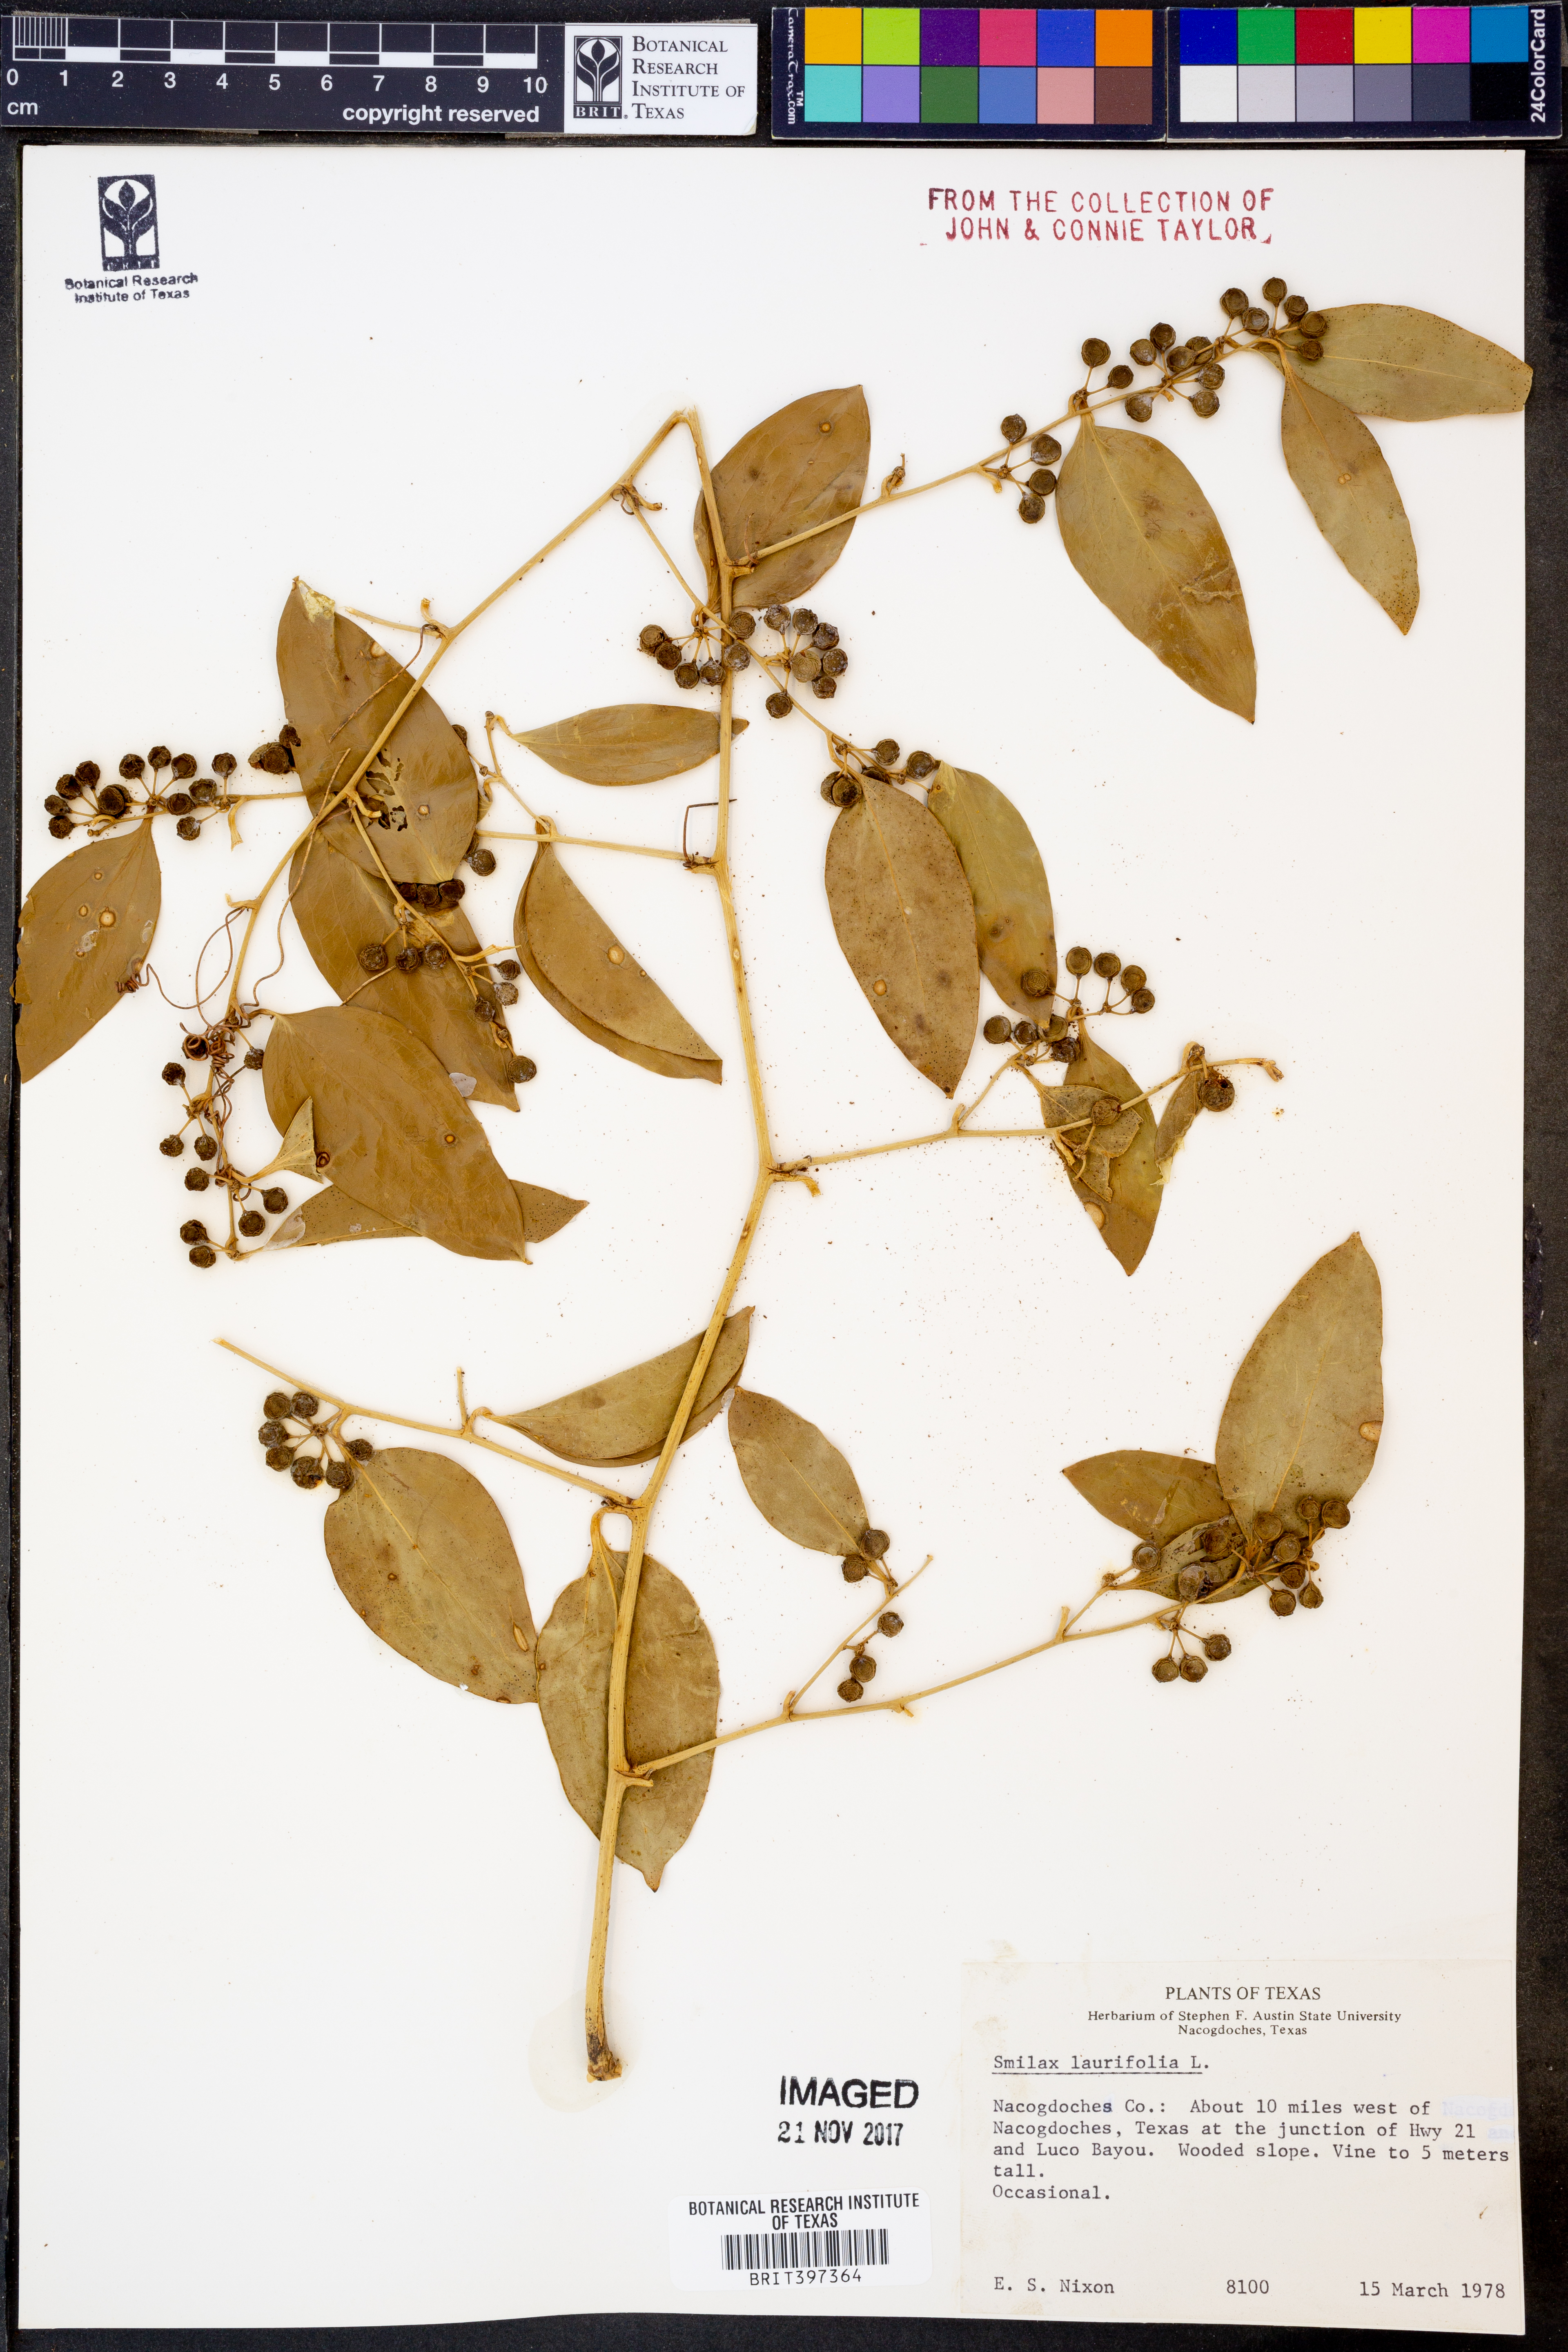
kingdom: Plantae
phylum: Tracheophyta
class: Liliopsida
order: Liliales
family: Smilacaceae
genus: Smilax
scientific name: Smilax laurifolia
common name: Bamboovine
